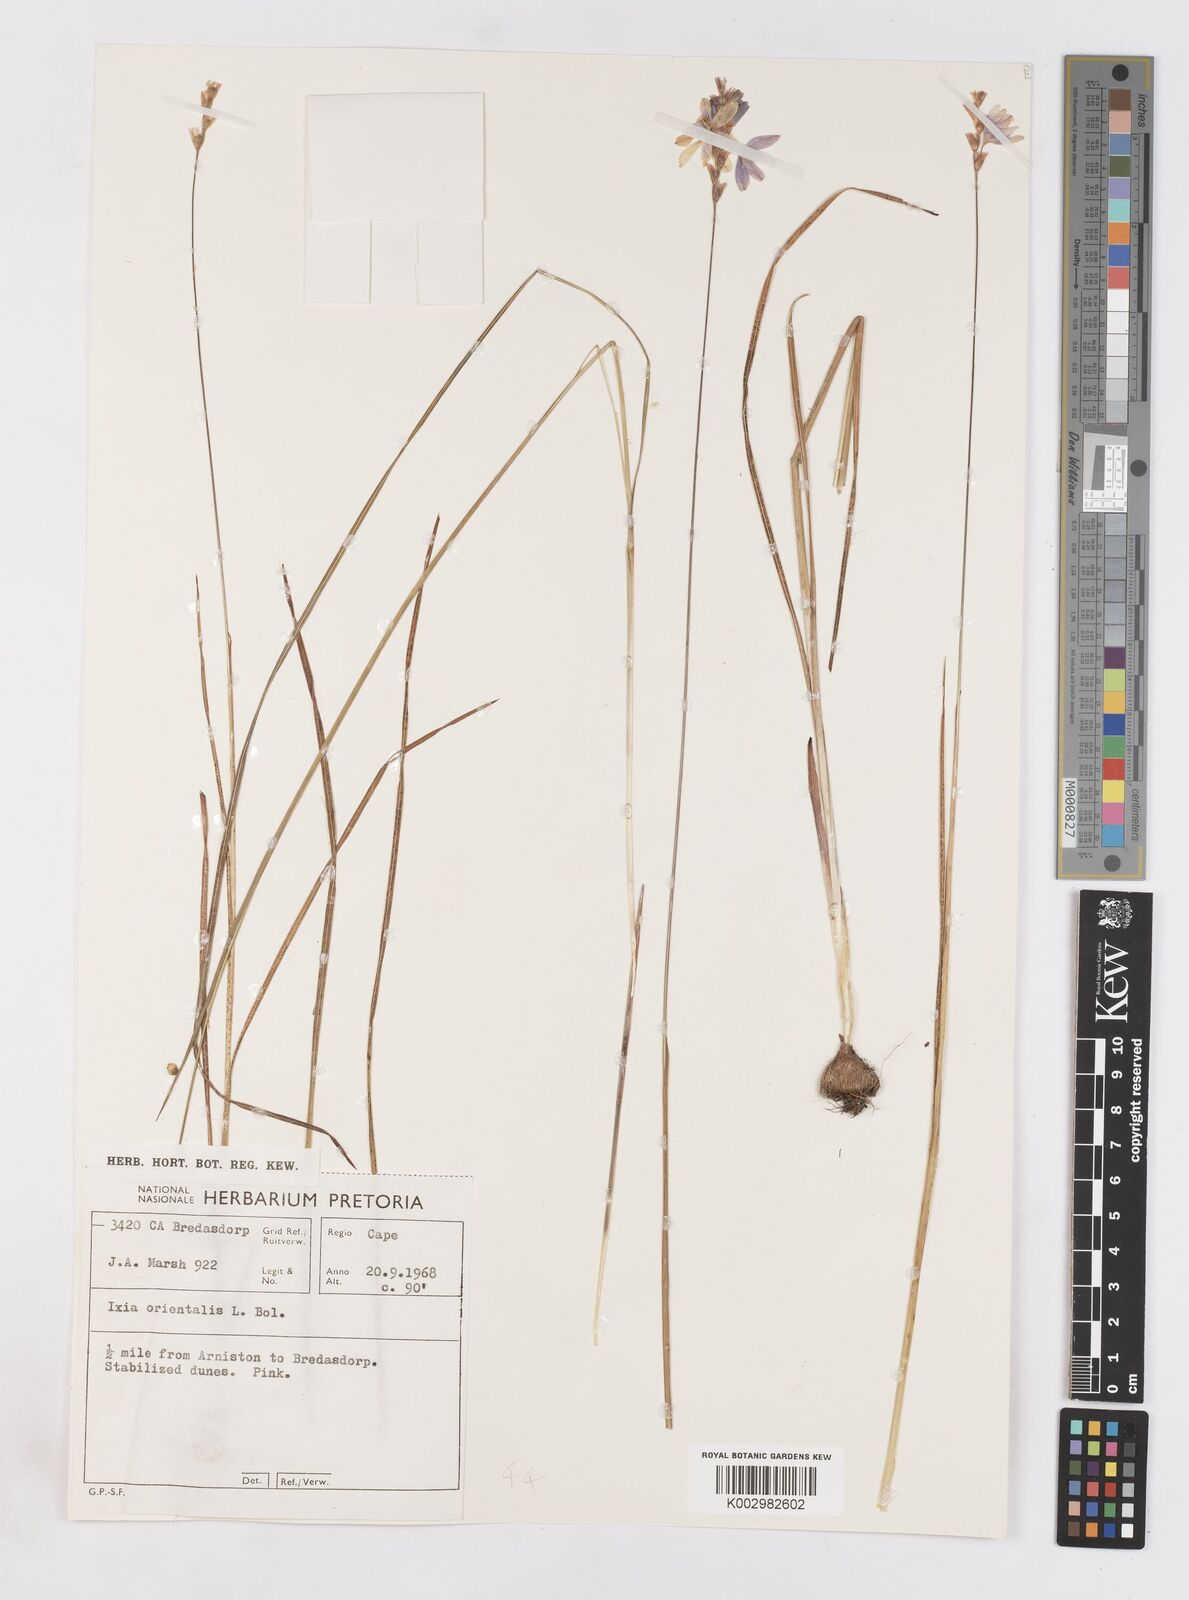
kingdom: Plantae
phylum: Tracheophyta
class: Liliopsida
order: Asparagales
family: Iridaceae
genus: Ixia
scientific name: Ixia orientalis
